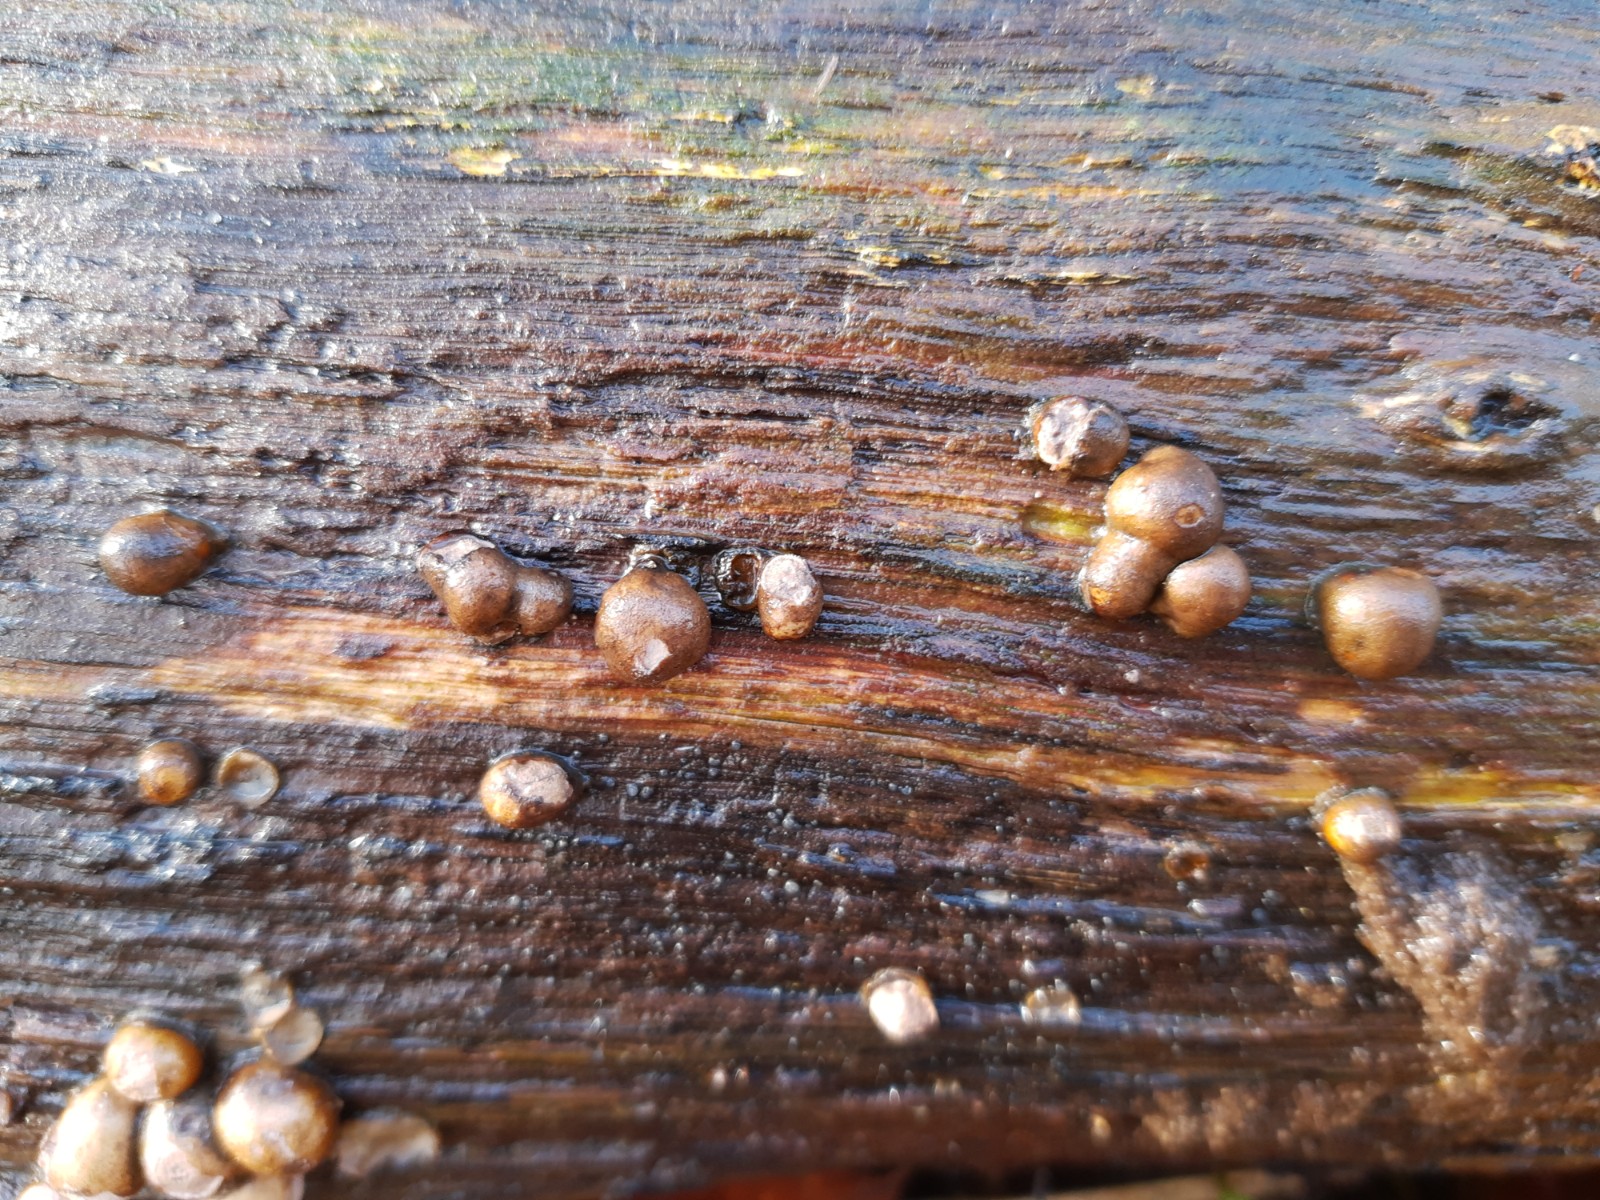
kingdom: Protozoa
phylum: Mycetozoa
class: Myxomycetes
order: Cribrariales
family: Tubiferaceae
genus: Lycogala
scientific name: Lycogala epidendrum
